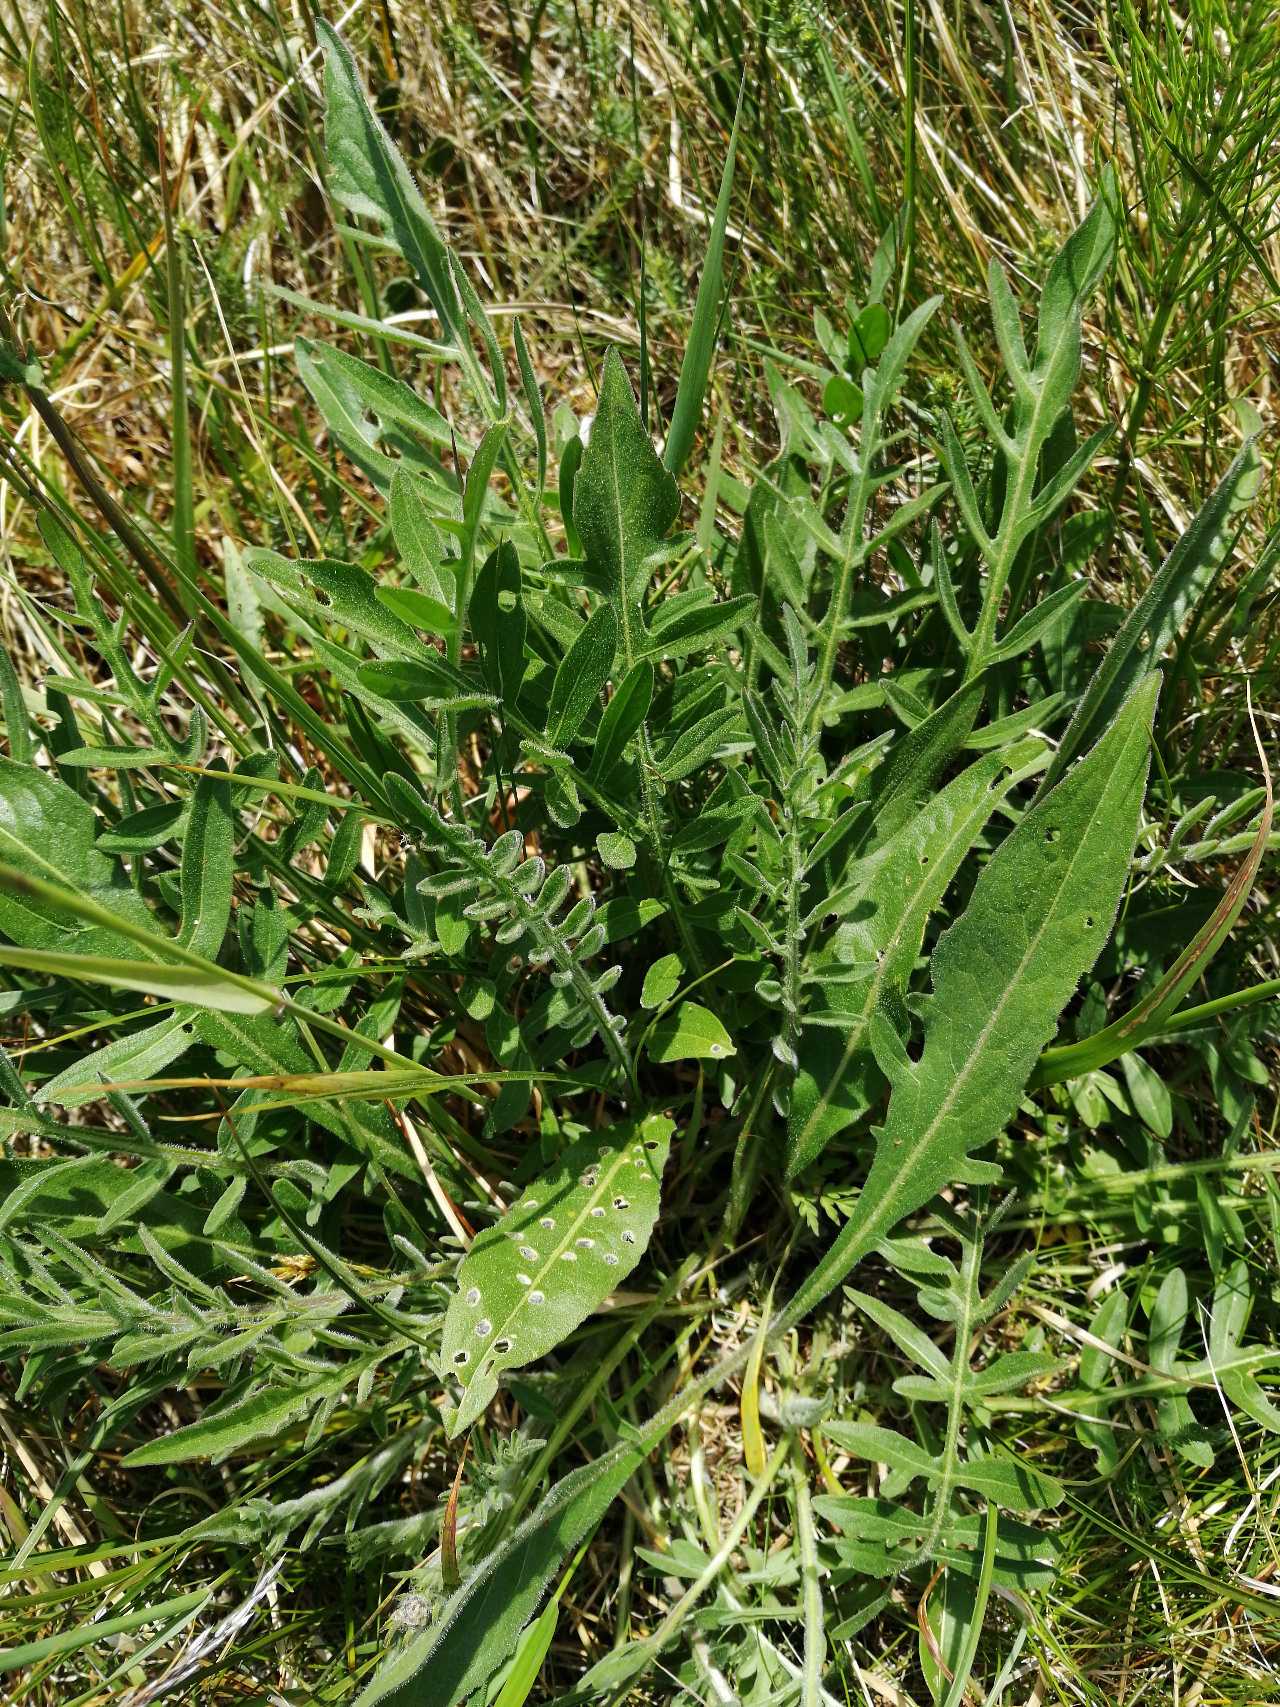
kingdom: Plantae
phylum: Tracheophyta
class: Magnoliopsida
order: Asterales
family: Asteraceae
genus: Centaurea
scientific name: Centaurea scabiosa
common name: Stor knopurt
